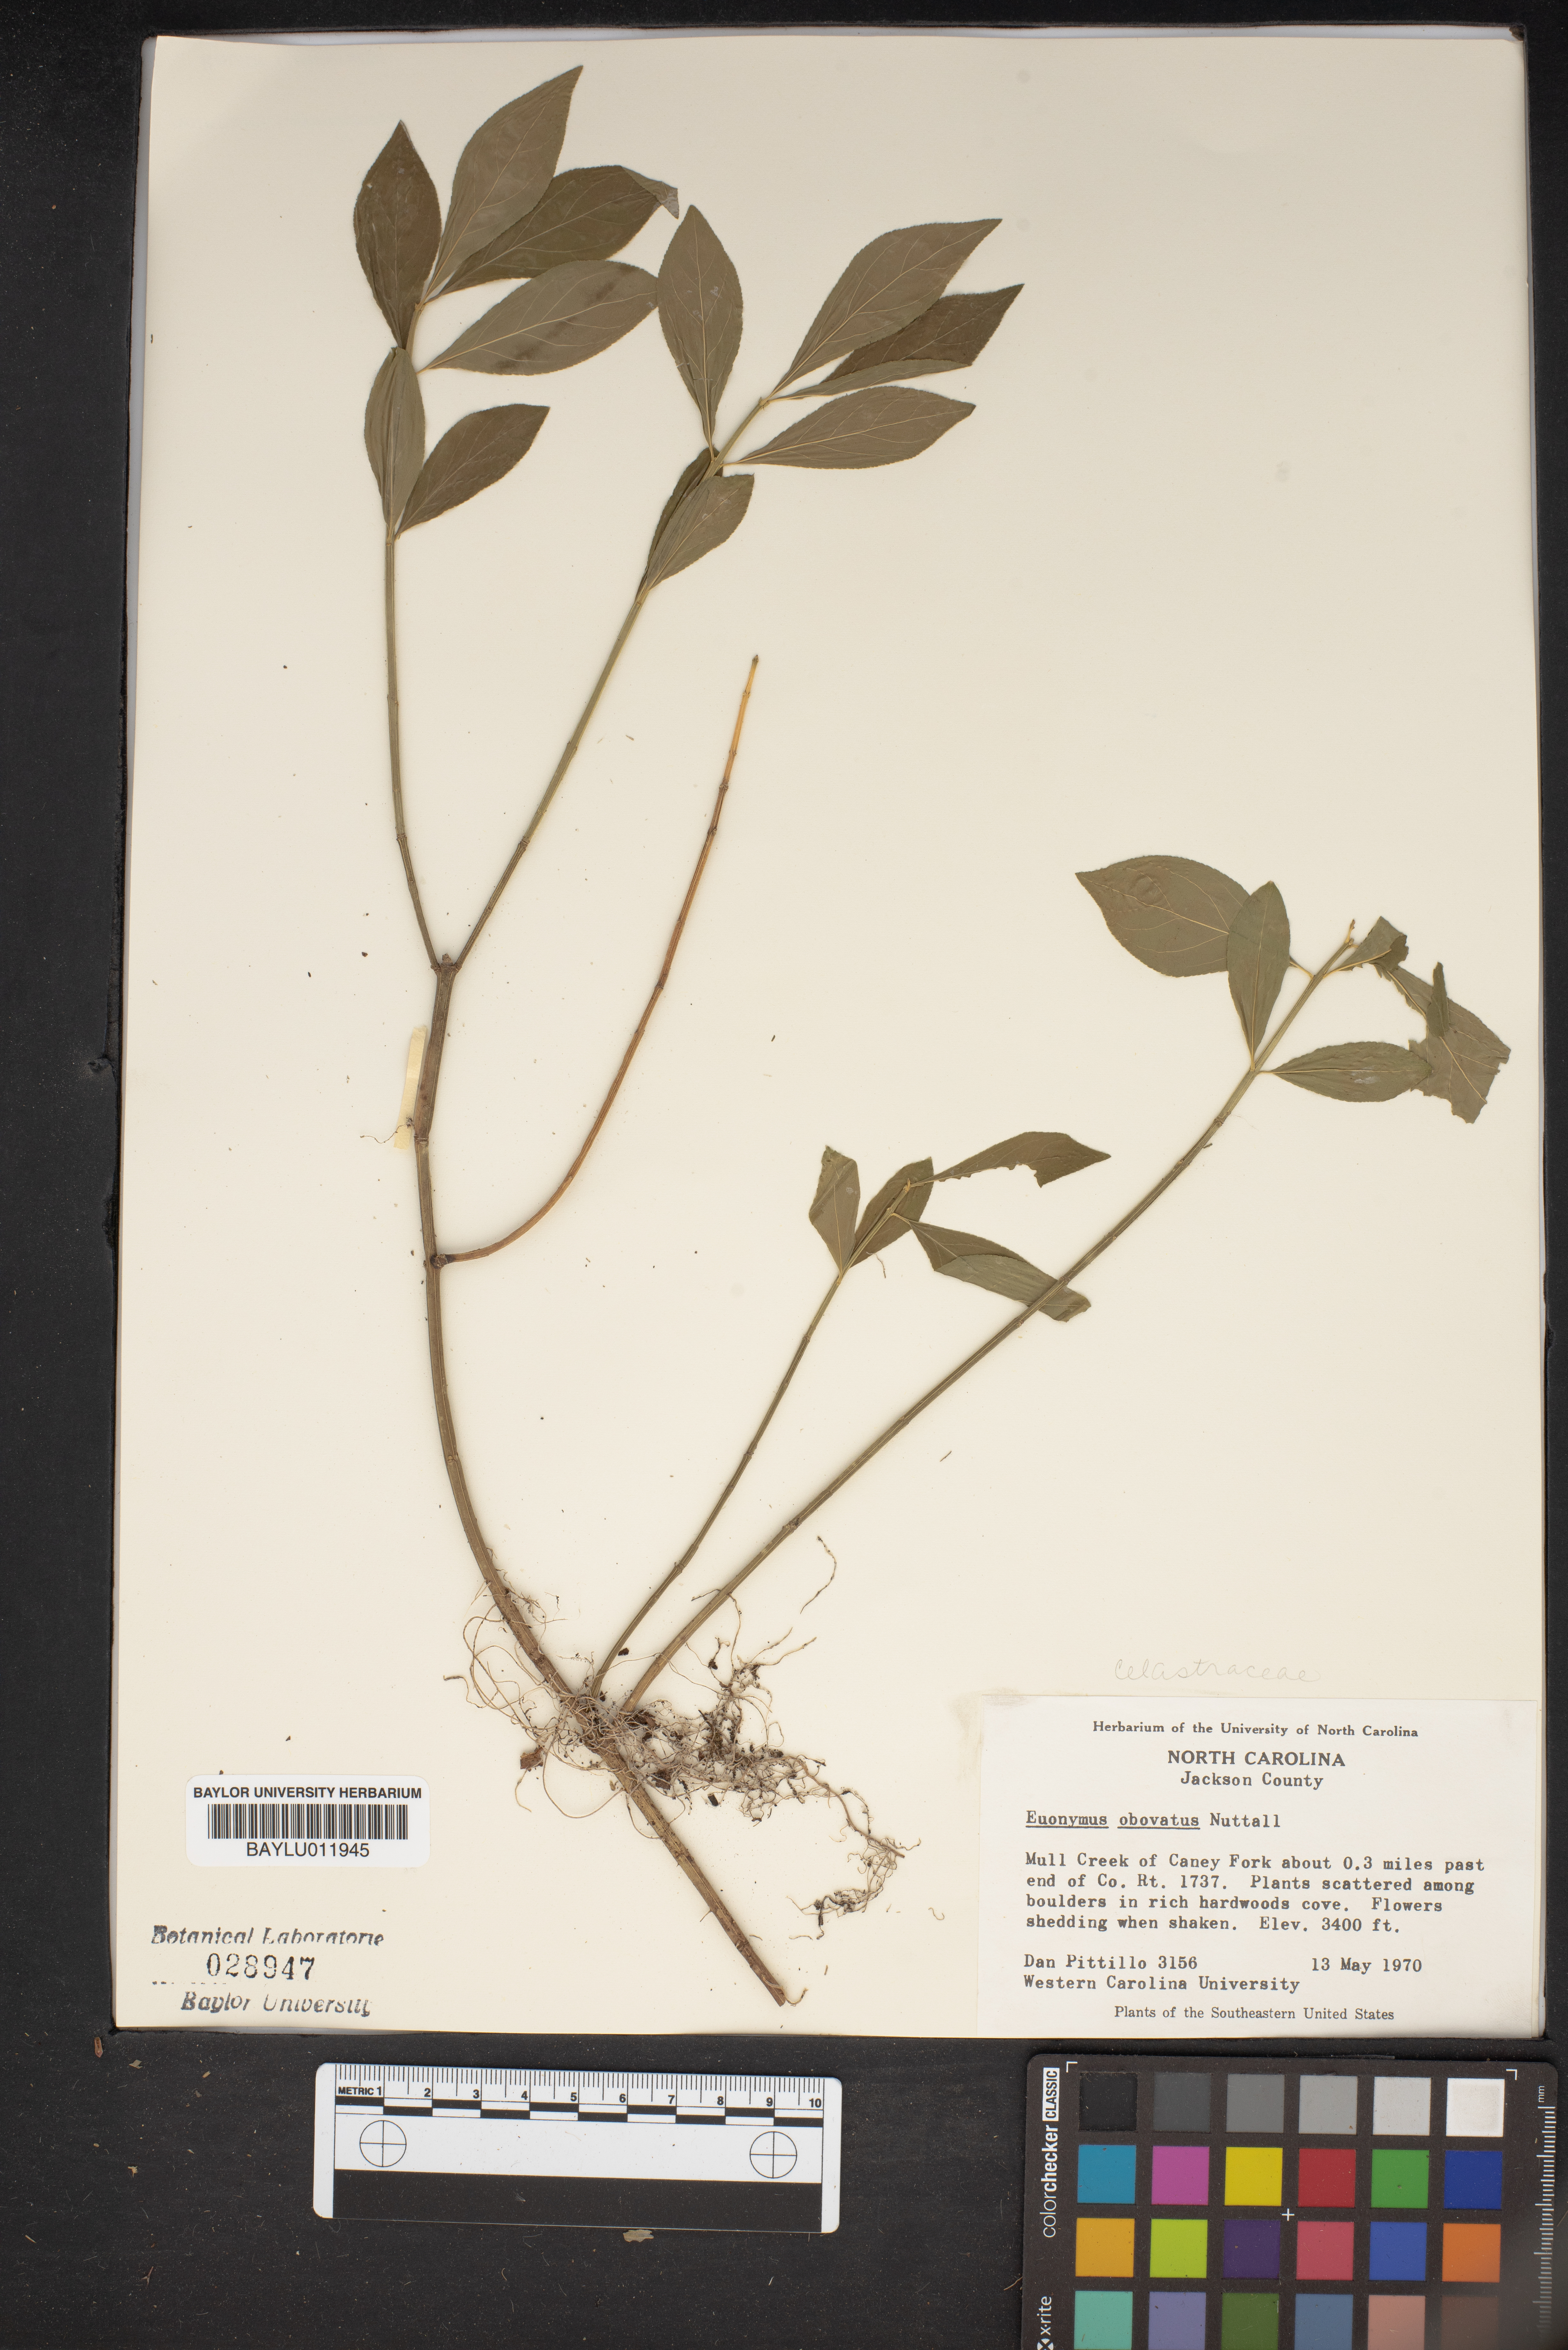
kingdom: Plantae
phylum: Tracheophyta
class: Magnoliopsida
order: Celastrales
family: Celastraceae
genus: Euonymus
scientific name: Euonymus obovatus
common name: Running strawberry-bush
